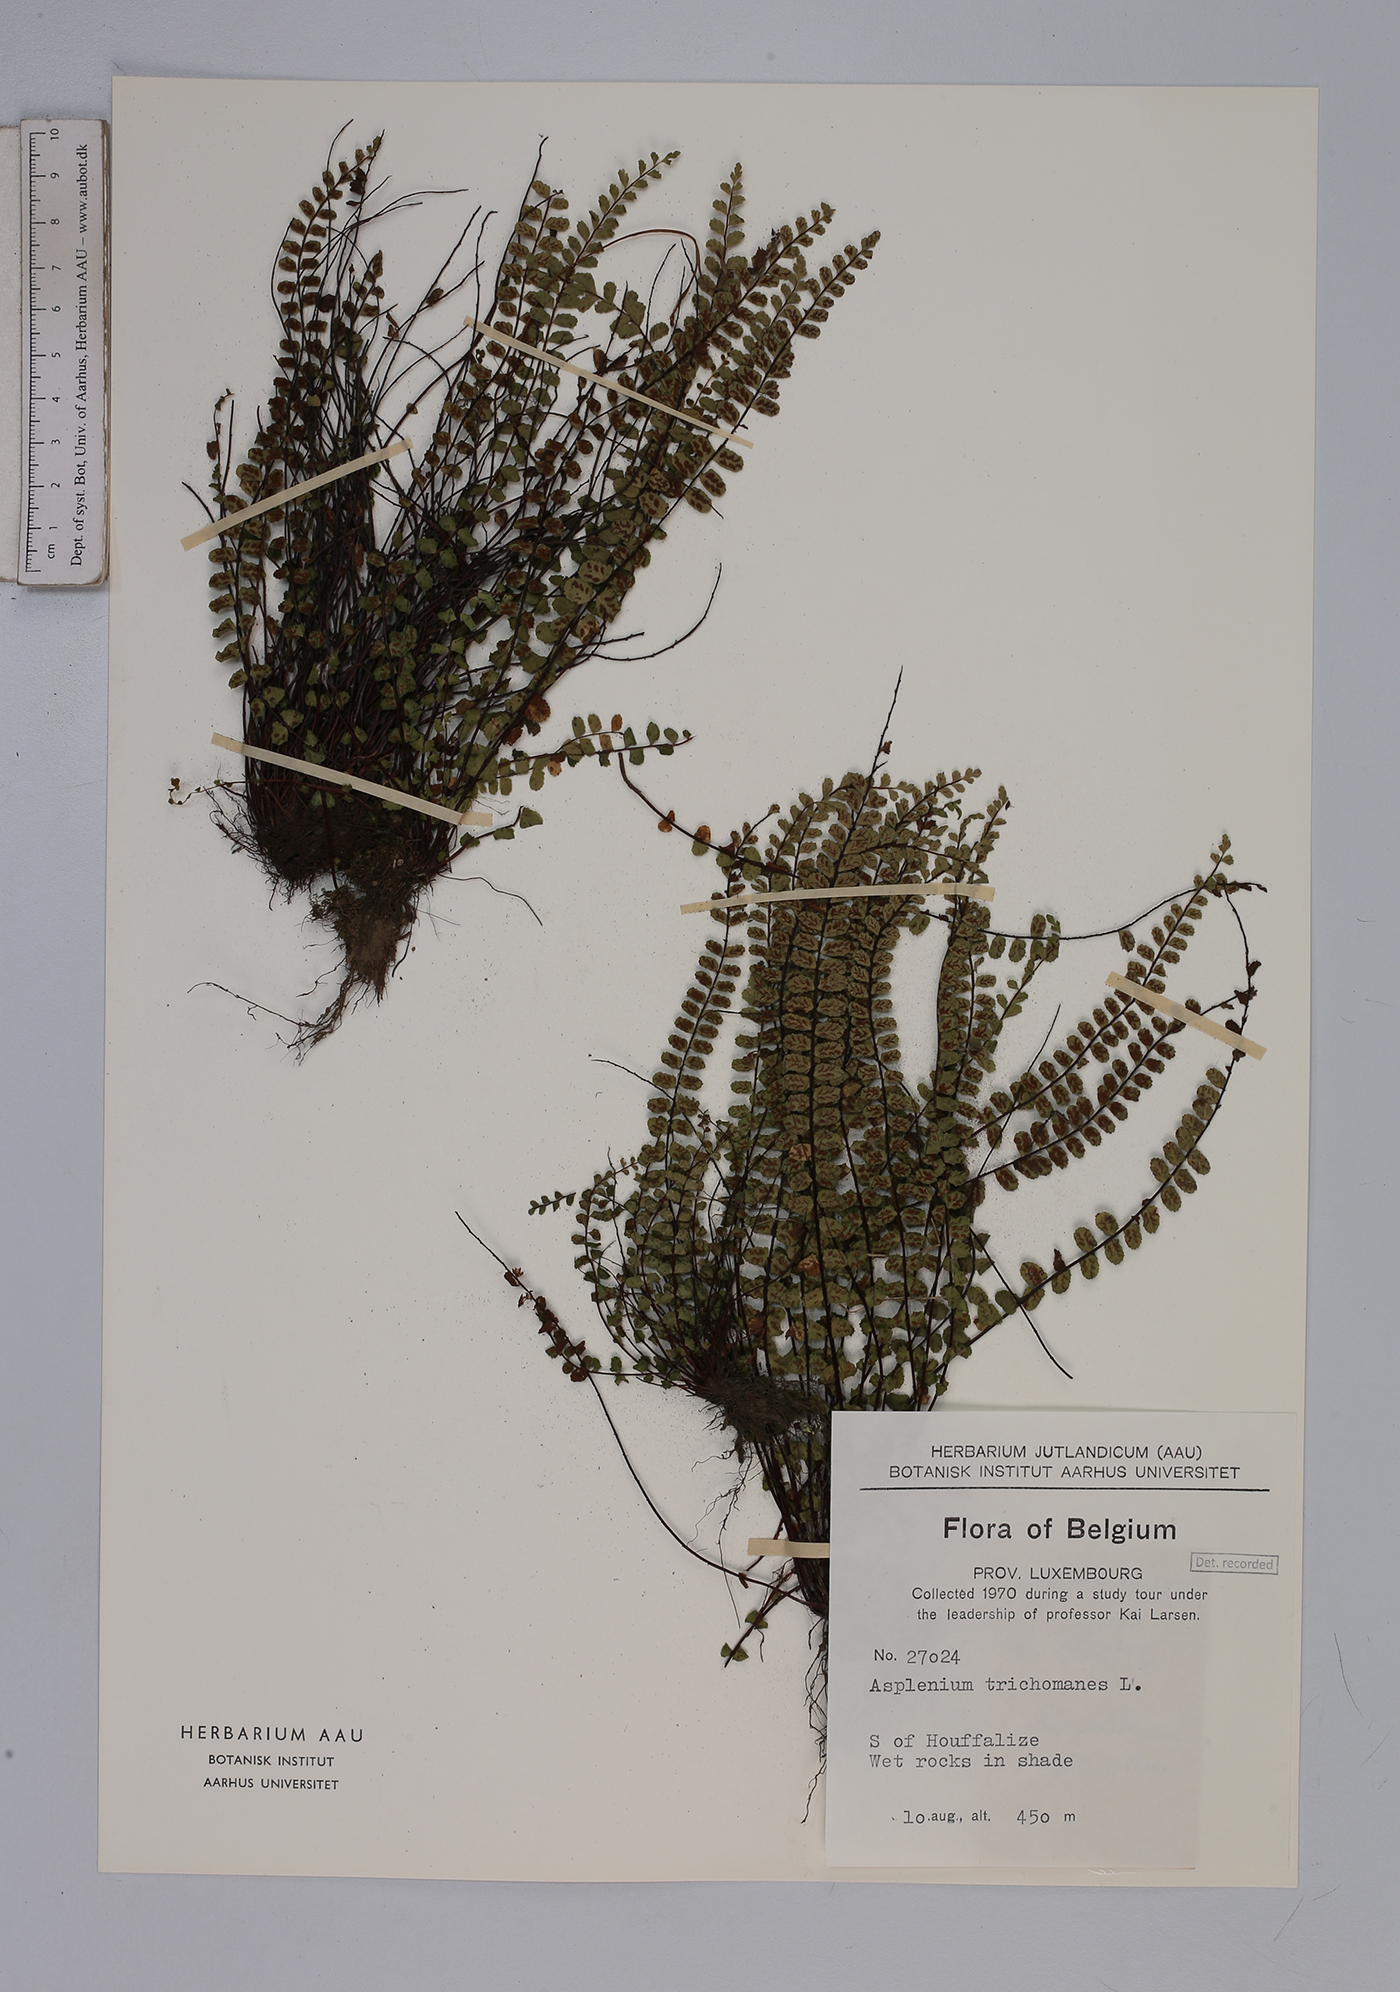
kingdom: Plantae
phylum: Tracheophyta
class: Polypodiopsida
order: Polypodiales
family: Aspleniaceae
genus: Asplenium
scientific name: Asplenium trichomanes
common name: Maidenhair spleenwort
